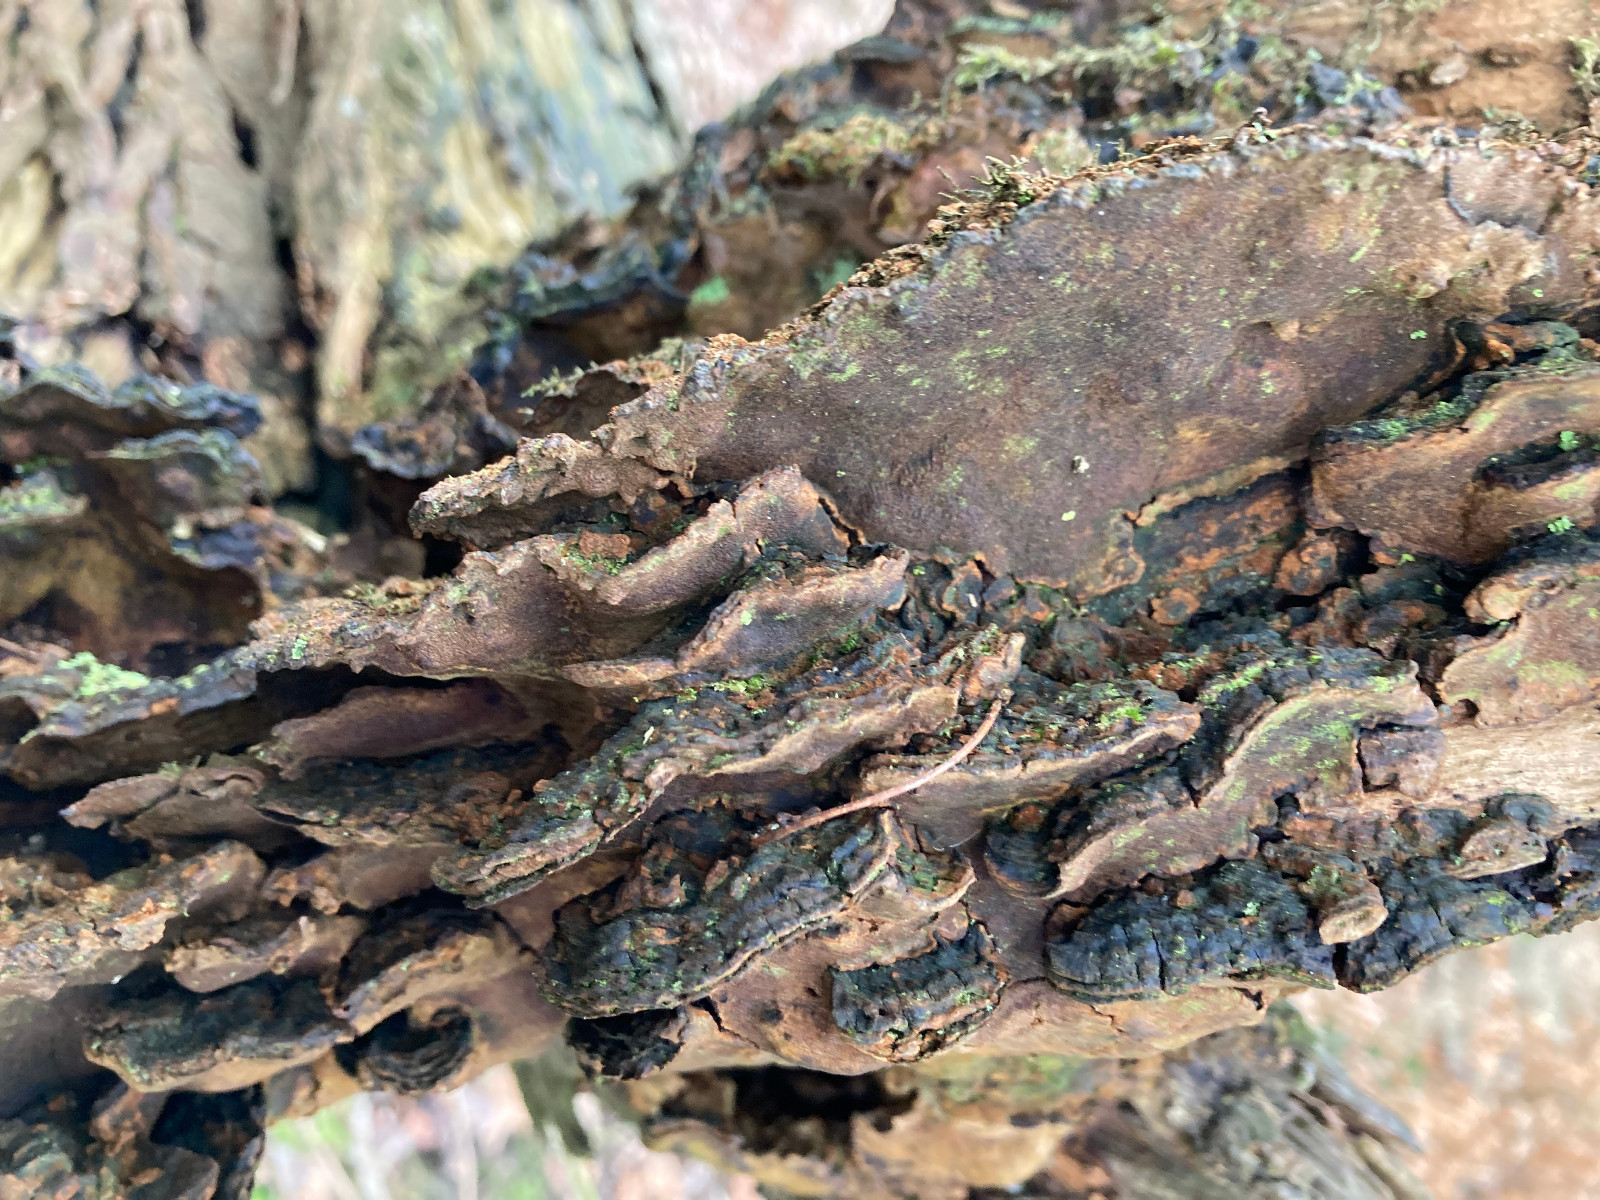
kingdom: Fungi
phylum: Basidiomycota
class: Agaricomycetes
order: Hymenochaetales
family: Hymenochaetaceae
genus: Phellinopsis
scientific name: Phellinopsis conchata
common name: pile-ildporesvamp
